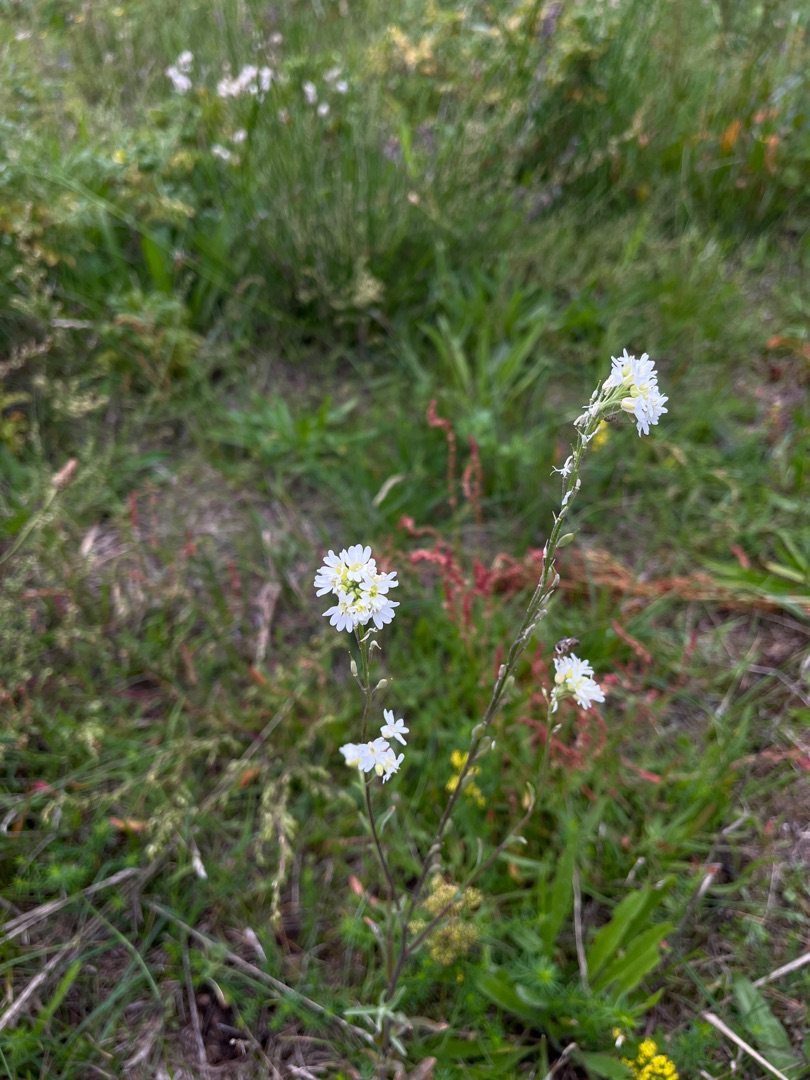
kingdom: Plantae
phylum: Tracheophyta
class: Magnoliopsida
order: Brassicales
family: Brassicaceae
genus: Berteroa
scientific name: Berteroa incana
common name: Kløvplade
